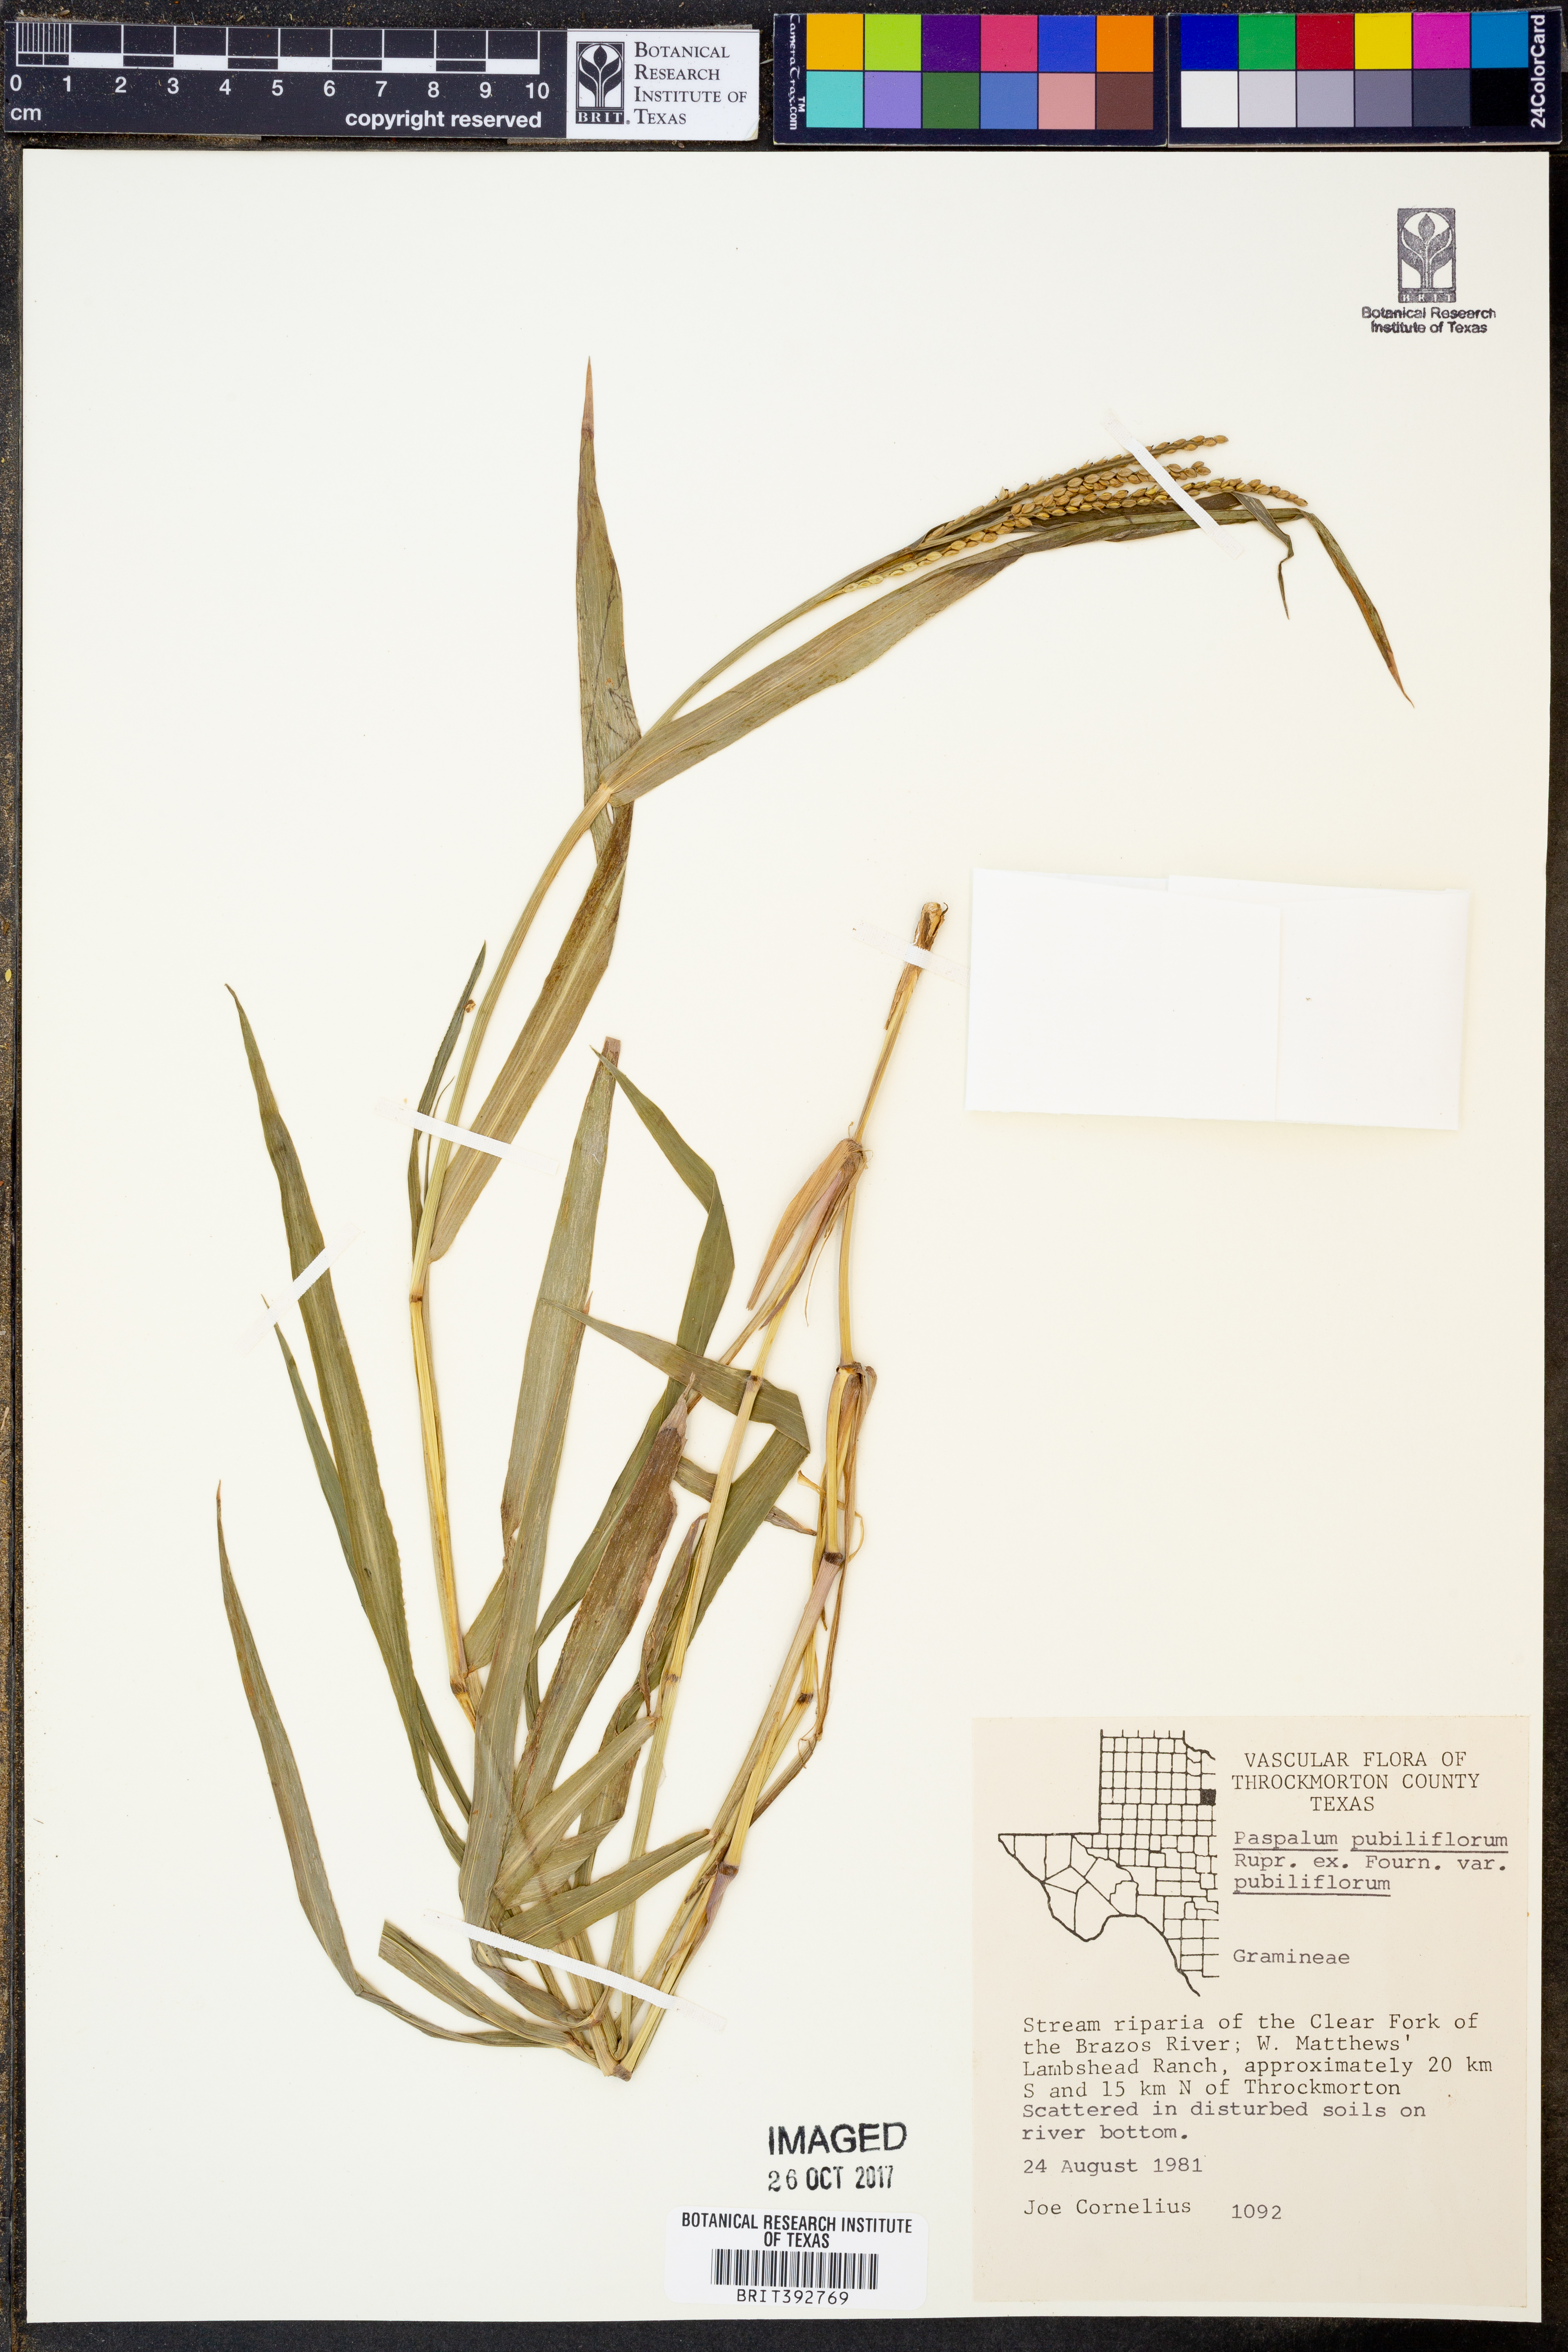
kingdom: Plantae
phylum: Tracheophyta
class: Liliopsida
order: Poales
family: Poaceae
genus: Paspalum
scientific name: Paspalum pubiflorum
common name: Hairy-seed paspalum
